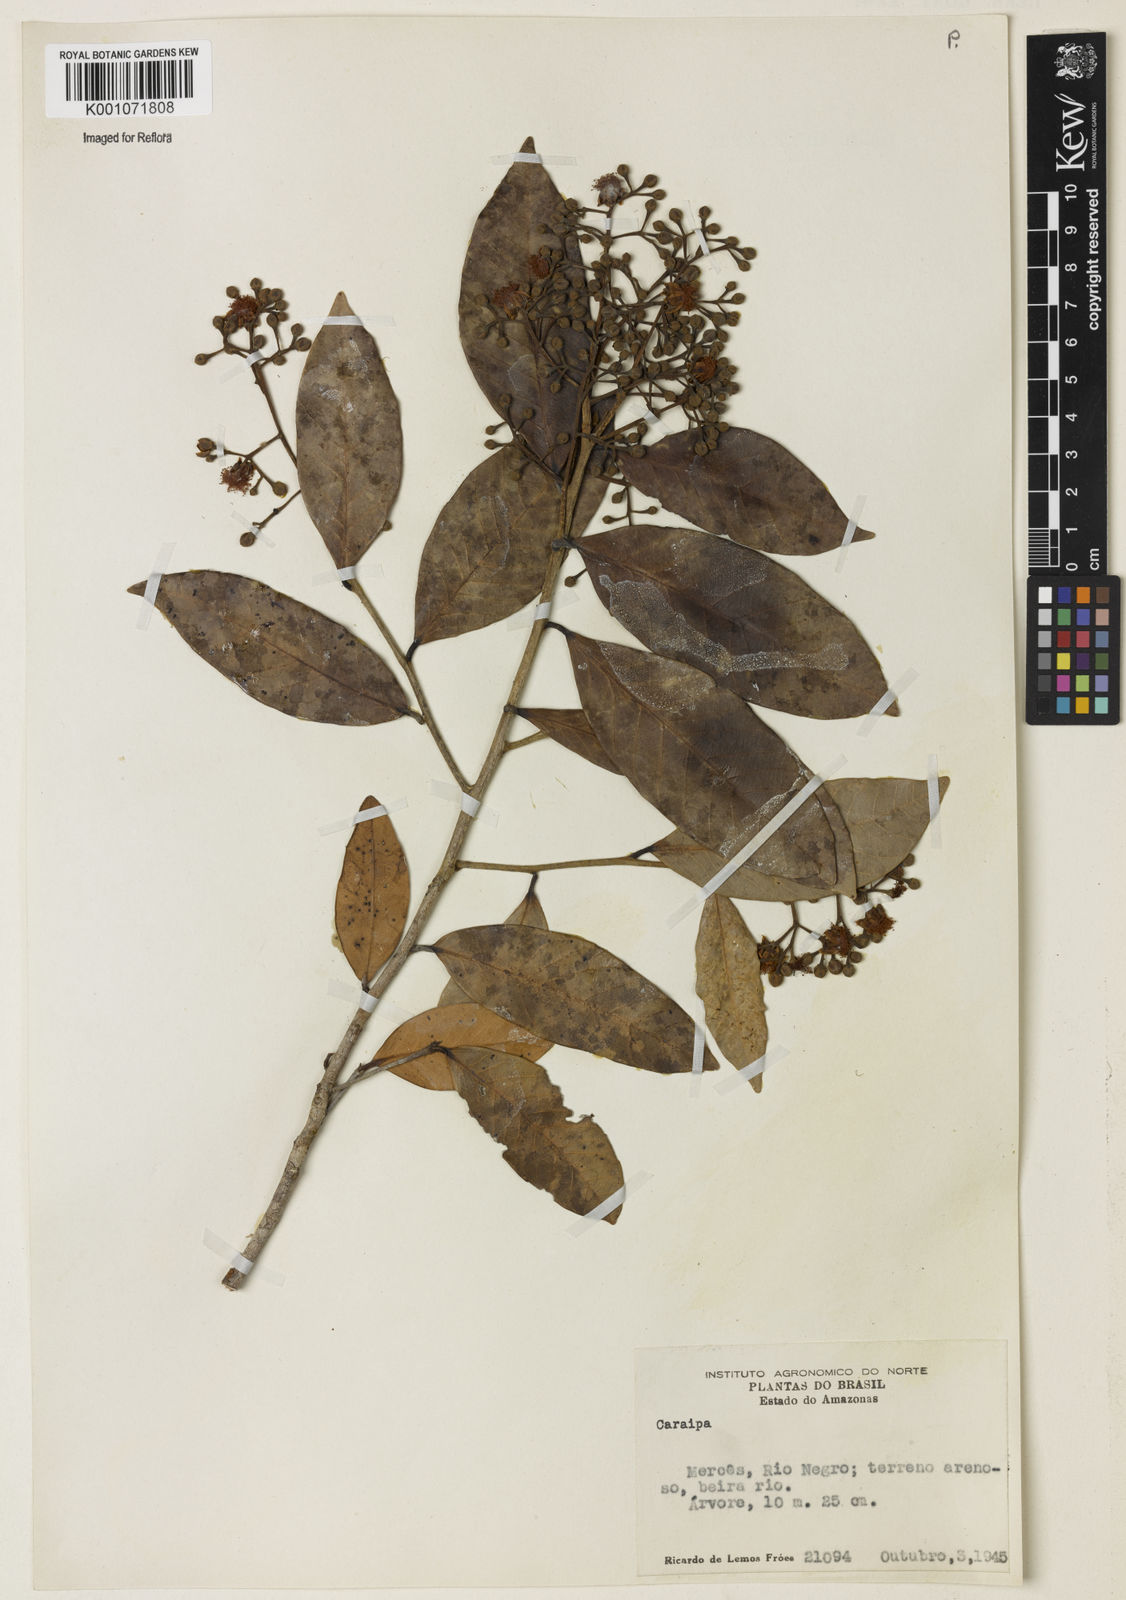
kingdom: Plantae
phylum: Tracheophyta
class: Magnoliopsida
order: Malpighiales
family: Calophyllaceae
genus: Caraipa
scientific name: Caraipa
